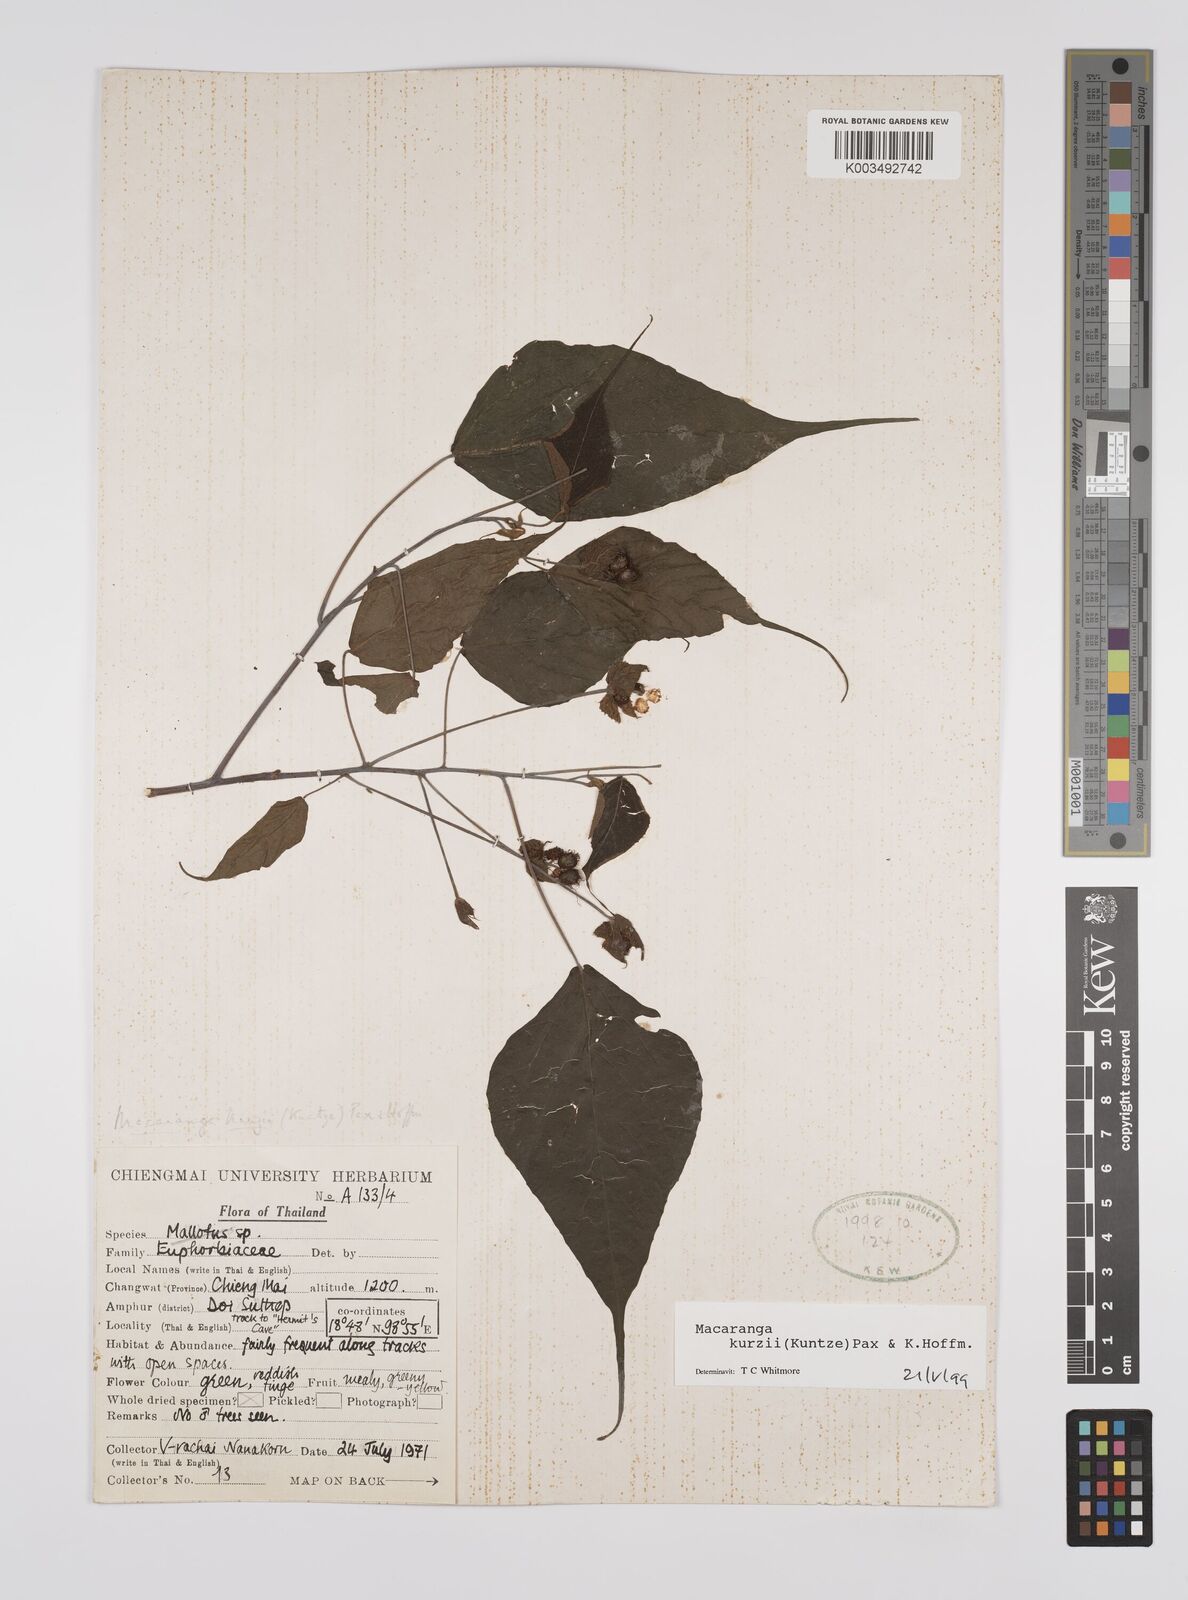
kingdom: Plantae
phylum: Tracheophyta
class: Magnoliopsida
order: Malpighiales
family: Euphorbiaceae
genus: Macaranga
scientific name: Macaranga kurzii
